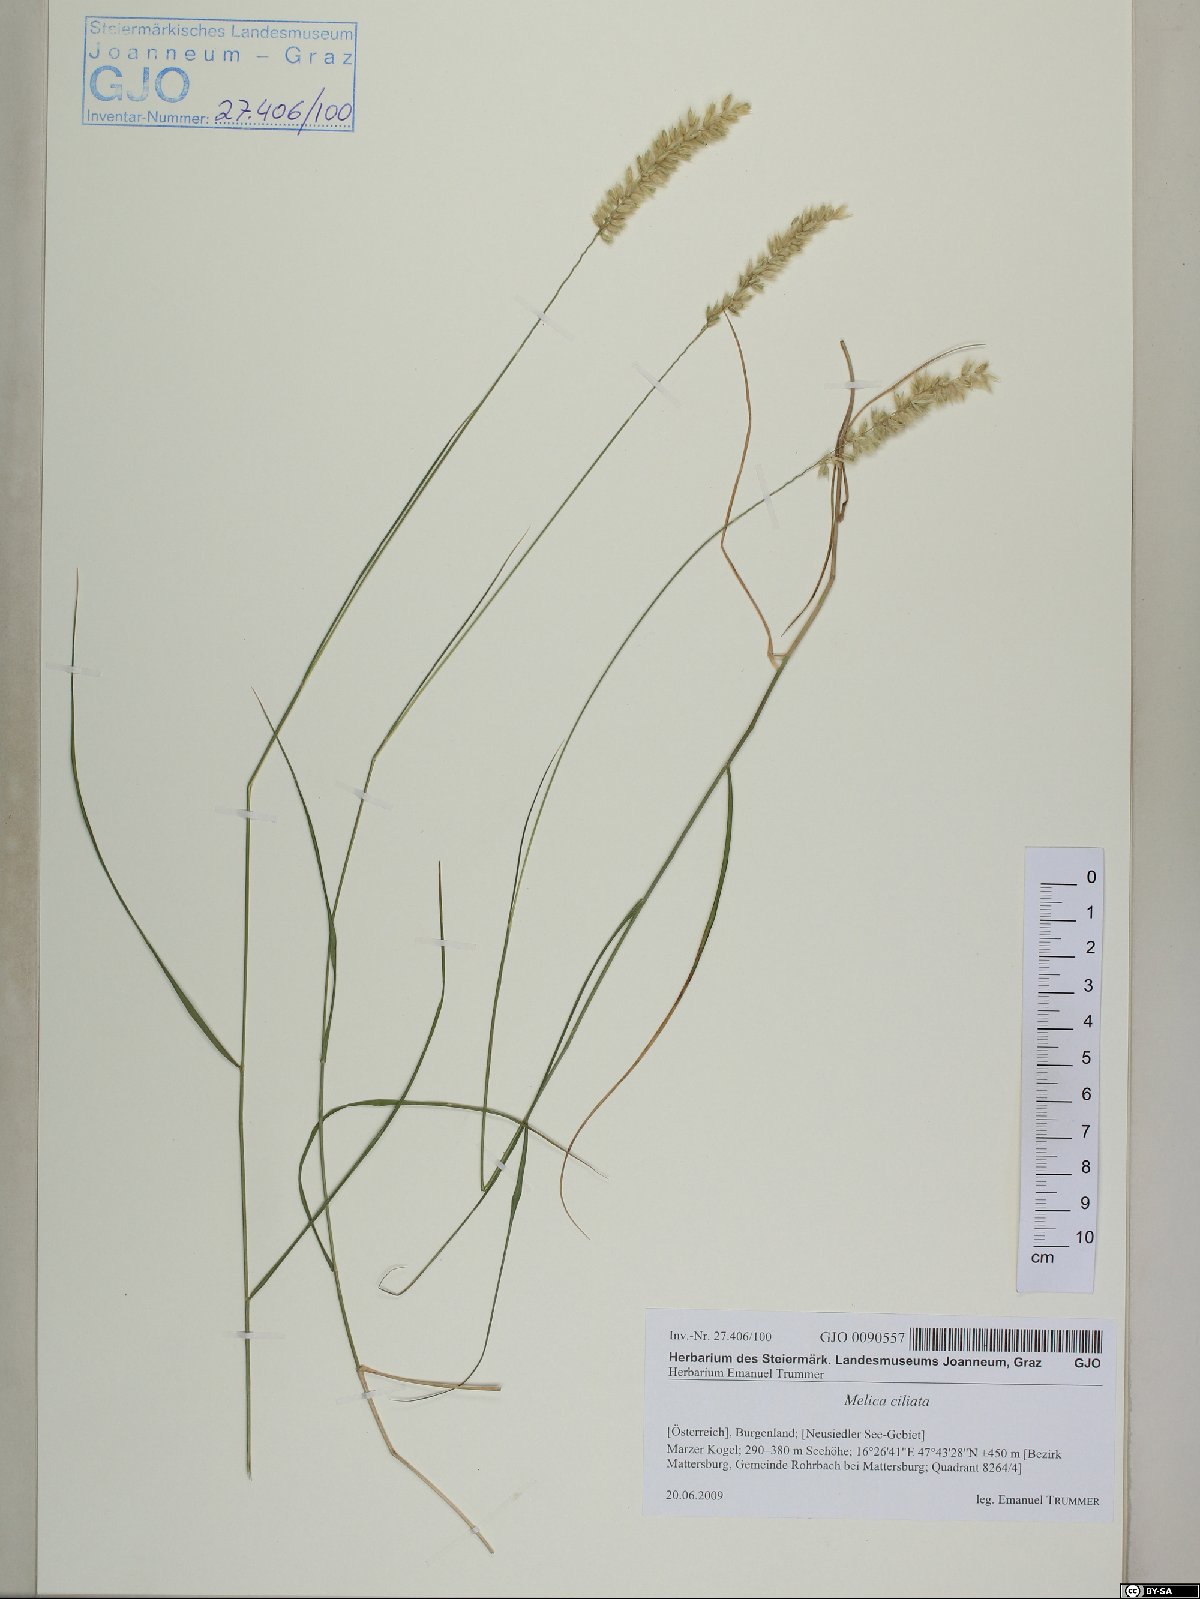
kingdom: Plantae
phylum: Tracheophyta
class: Liliopsida
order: Poales
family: Poaceae
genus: Melica
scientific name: Melica ciliata
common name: Hairy melicgrass
